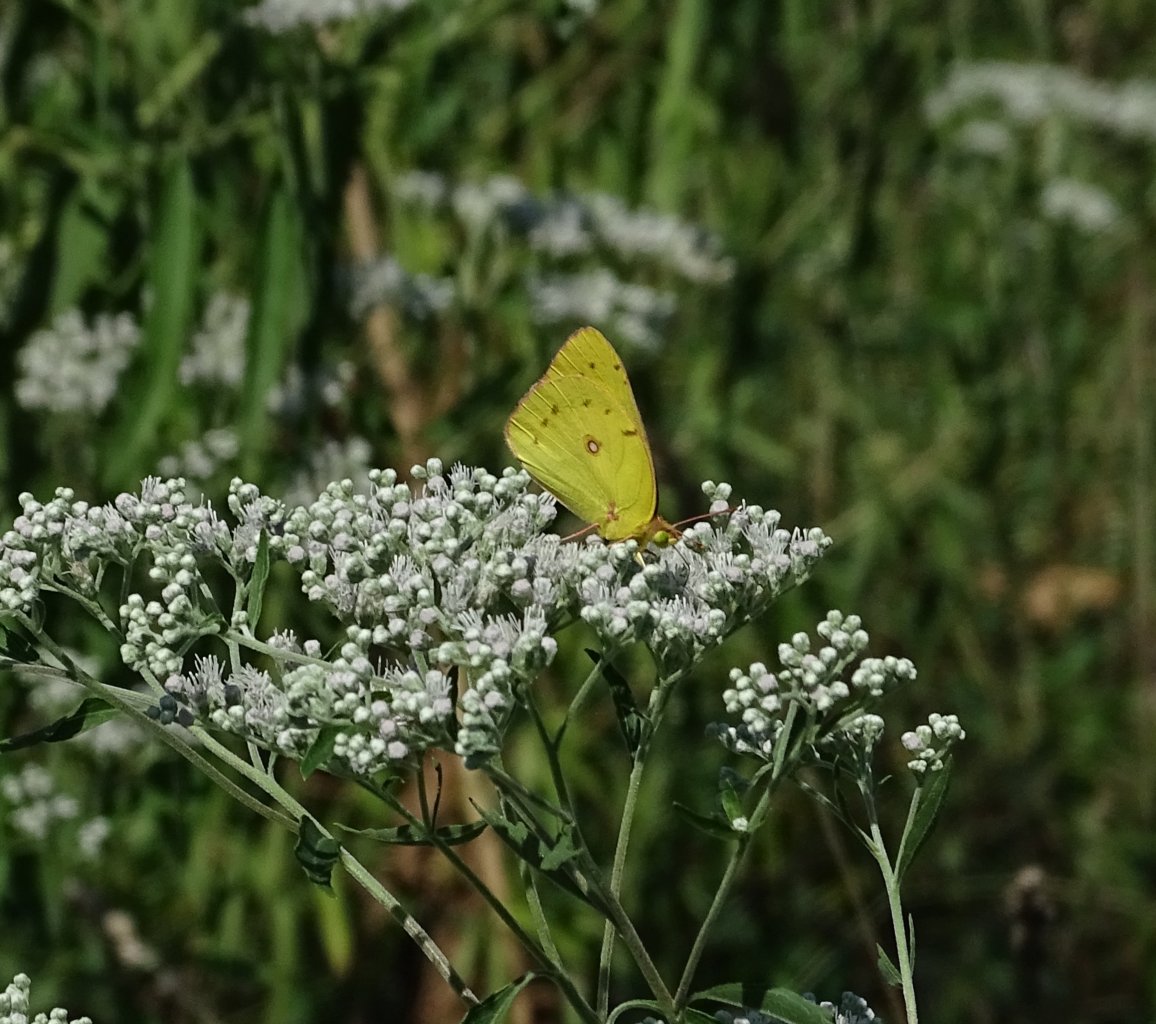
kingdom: Animalia
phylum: Arthropoda
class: Insecta
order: Lepidoptera
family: Pieridae
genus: Colias
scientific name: Colias eurytheme
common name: Orange Sulphur
